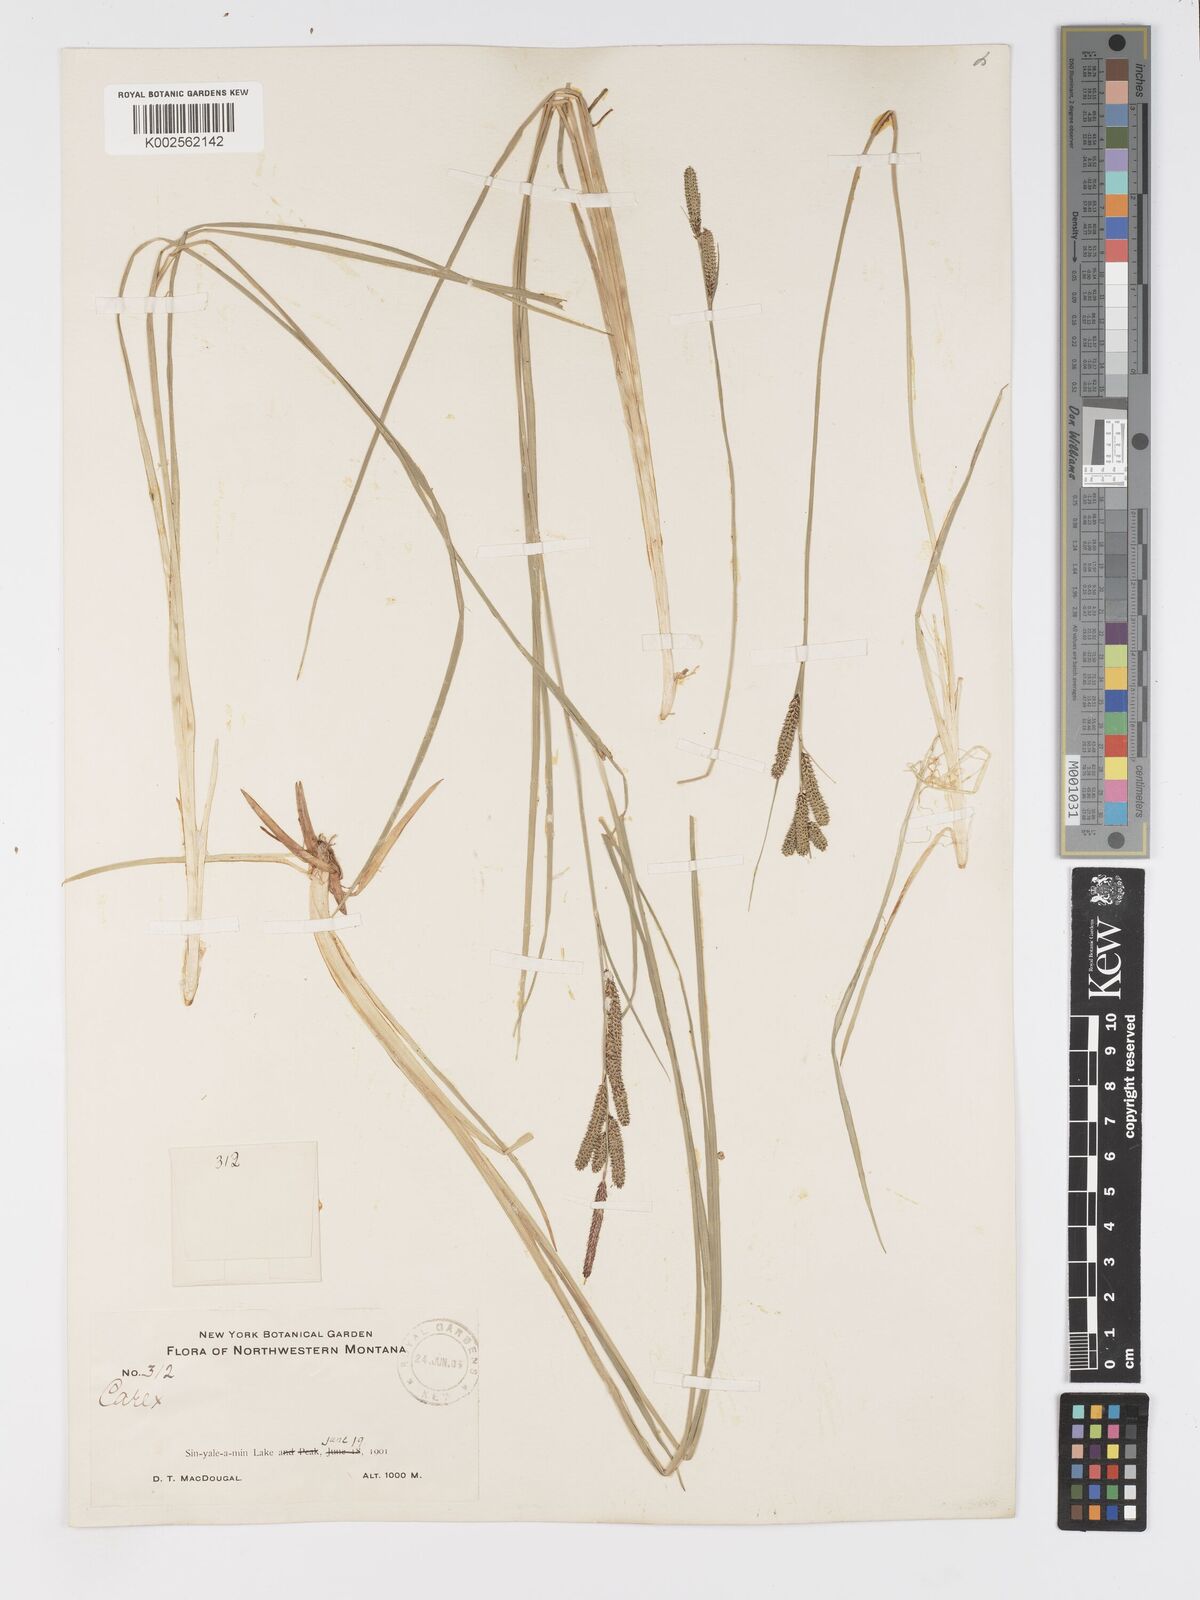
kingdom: Plantae
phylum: Tracheophyta
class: Liliopsida
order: Poales
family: Cyperaceae
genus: Carex
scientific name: Carex kelloggii
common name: Kellogg's sedge
